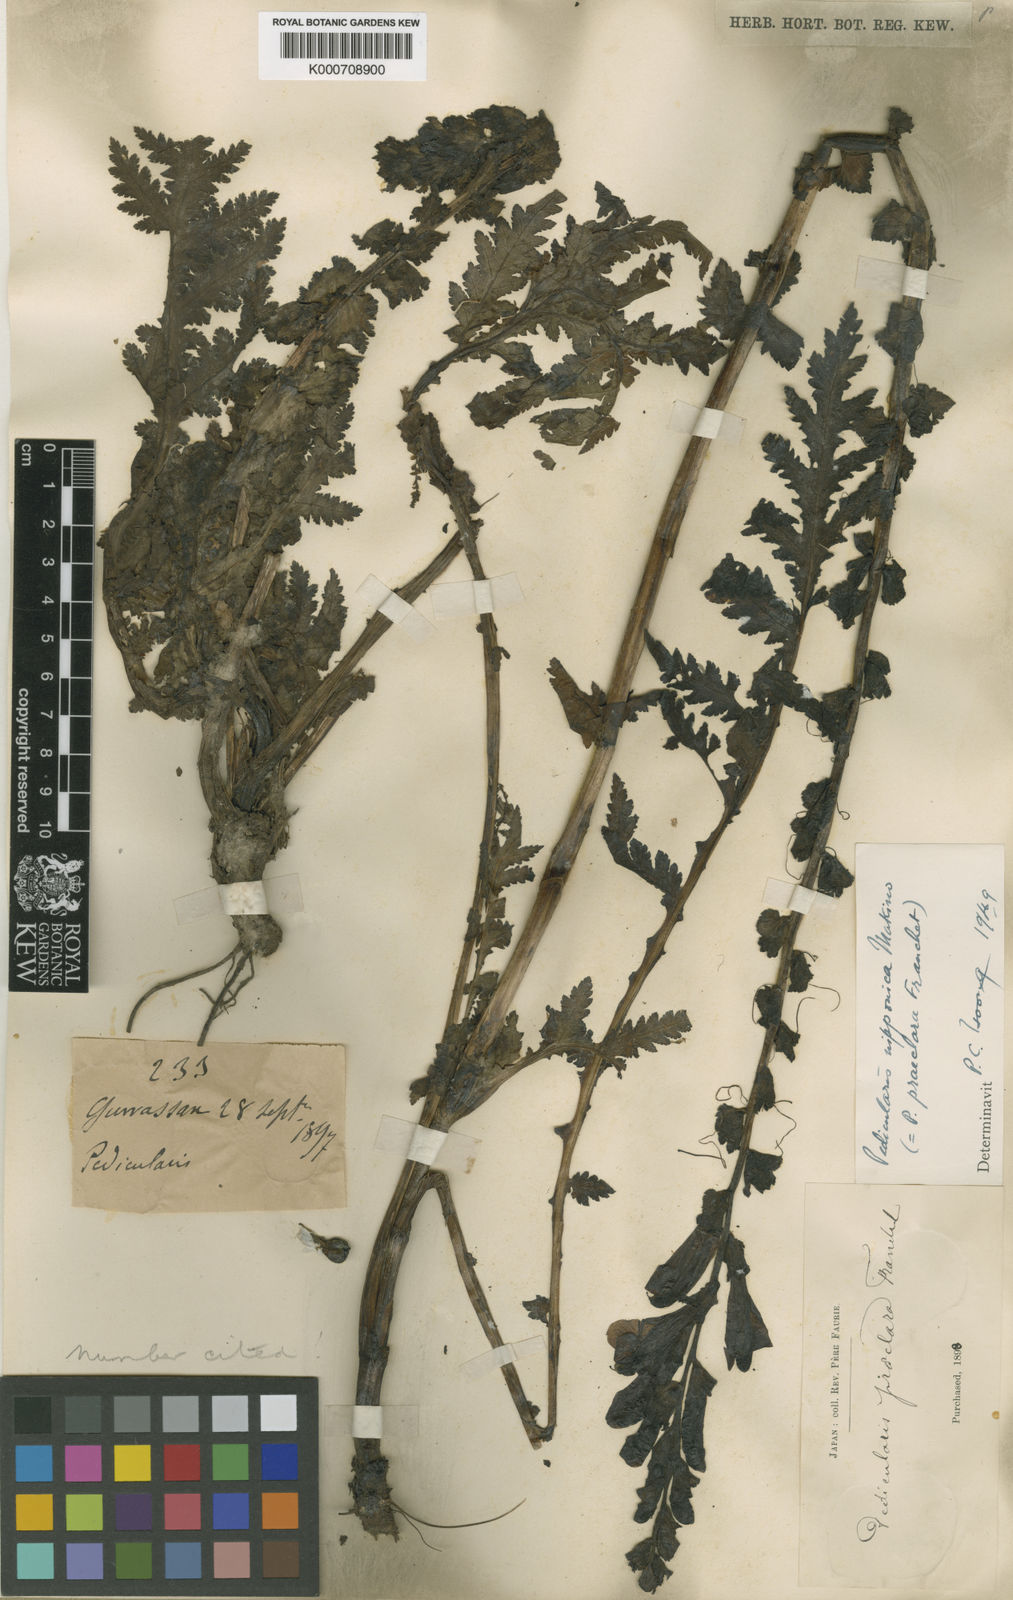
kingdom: Plantae
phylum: Tracheophyta
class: Magnoliopsida
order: Lamiales
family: Orobanchaceae
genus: Pedicularis
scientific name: Pedicularis nipponica
